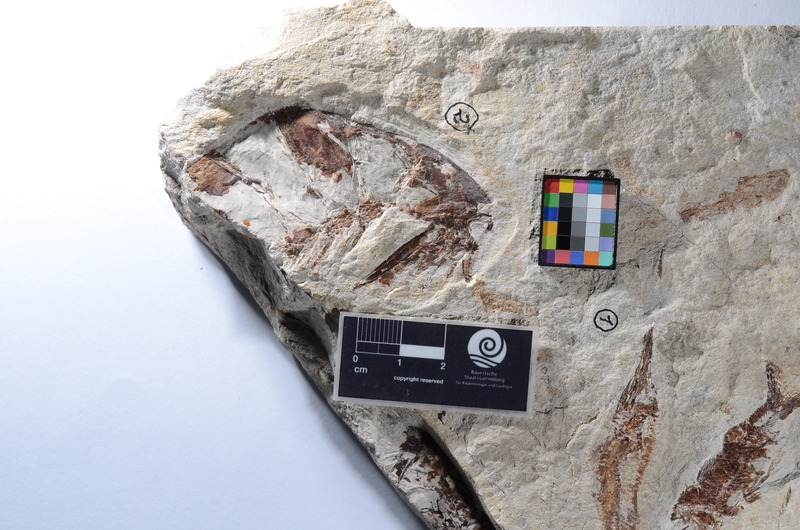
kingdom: Animalia
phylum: Chordata
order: Aulopiformes
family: Ichthyotringidae
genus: Ichthyotringa
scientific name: Ichthyotringa Rhinellus furcatus
